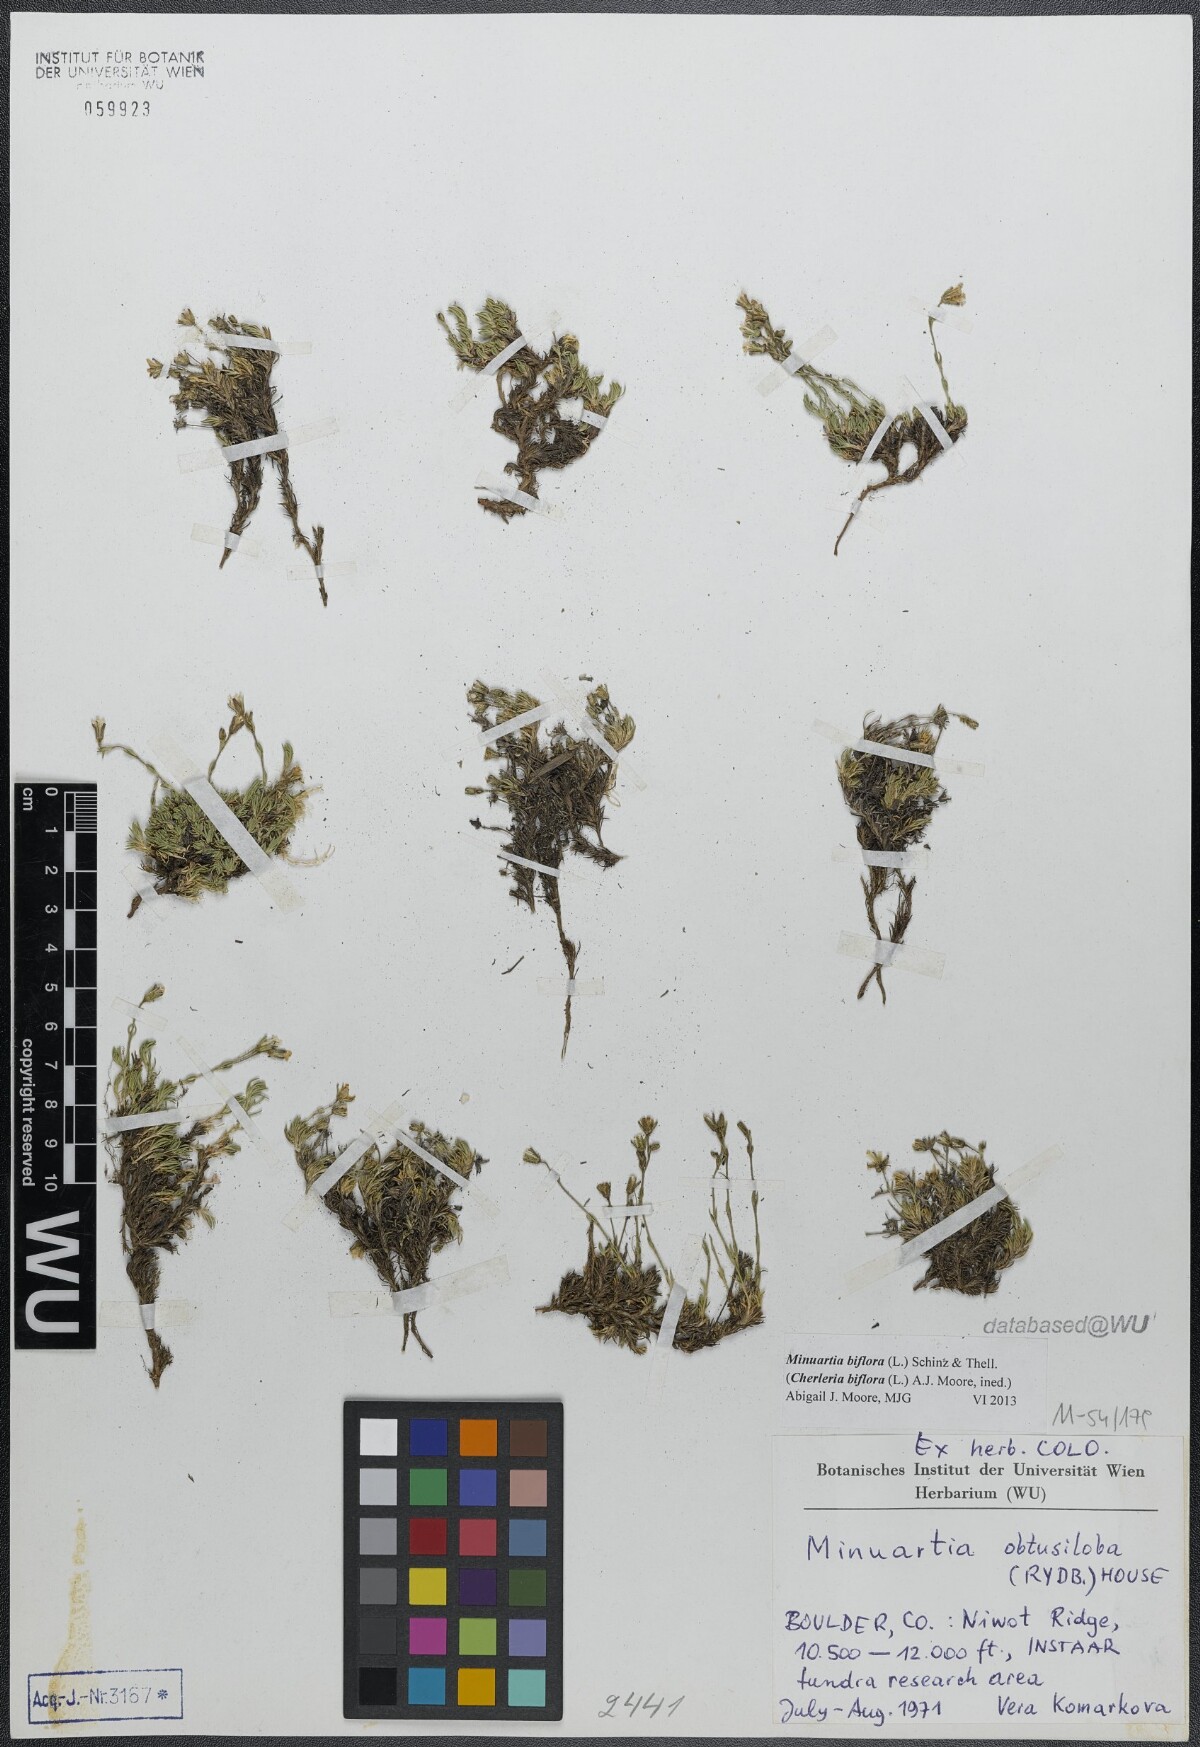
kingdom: Plantae
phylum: Tracheophyta
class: Magnoliopsida
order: Caryophyllales
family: Caryophyllaceae
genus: Cherleria
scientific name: Cherleria biflora
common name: Mountain sandwort
